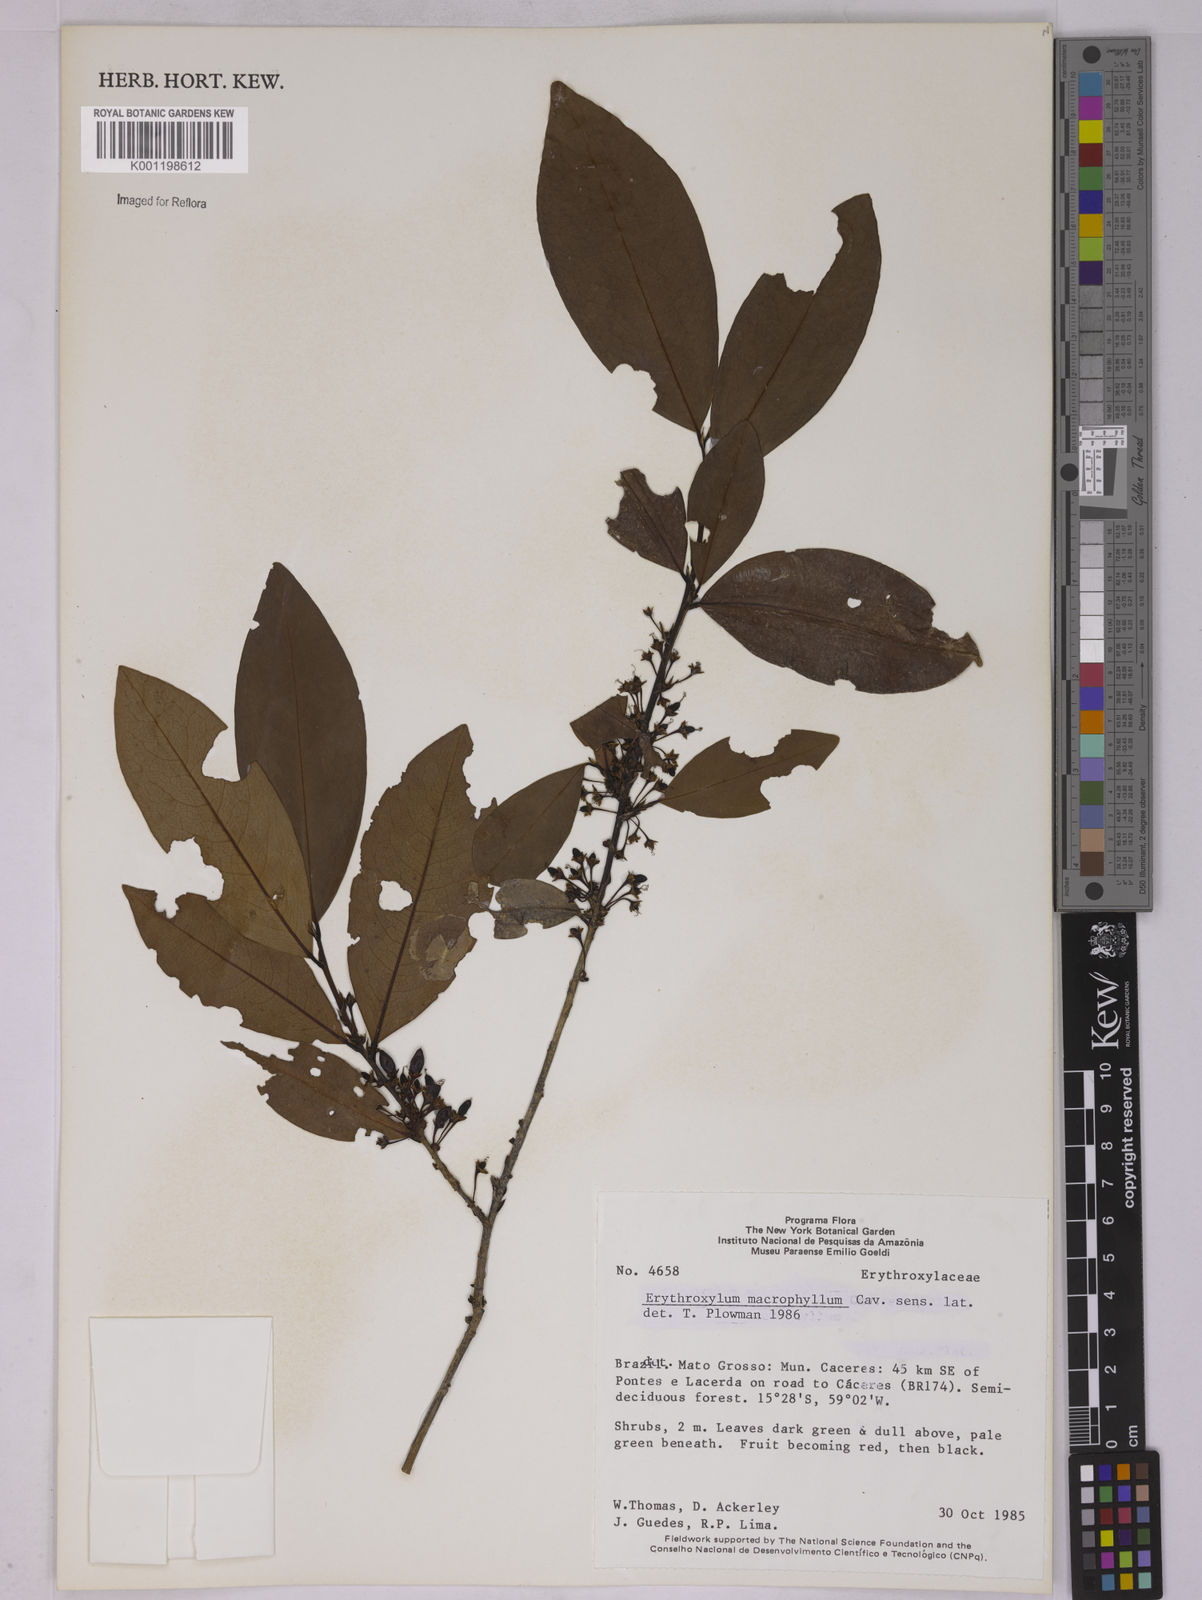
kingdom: Plantae
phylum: Tracheophyta
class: Magnoliopsida
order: Malpighiales
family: Erythroxylaceae
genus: Erythroxylum
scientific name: Erythroxylum macrophyllum
